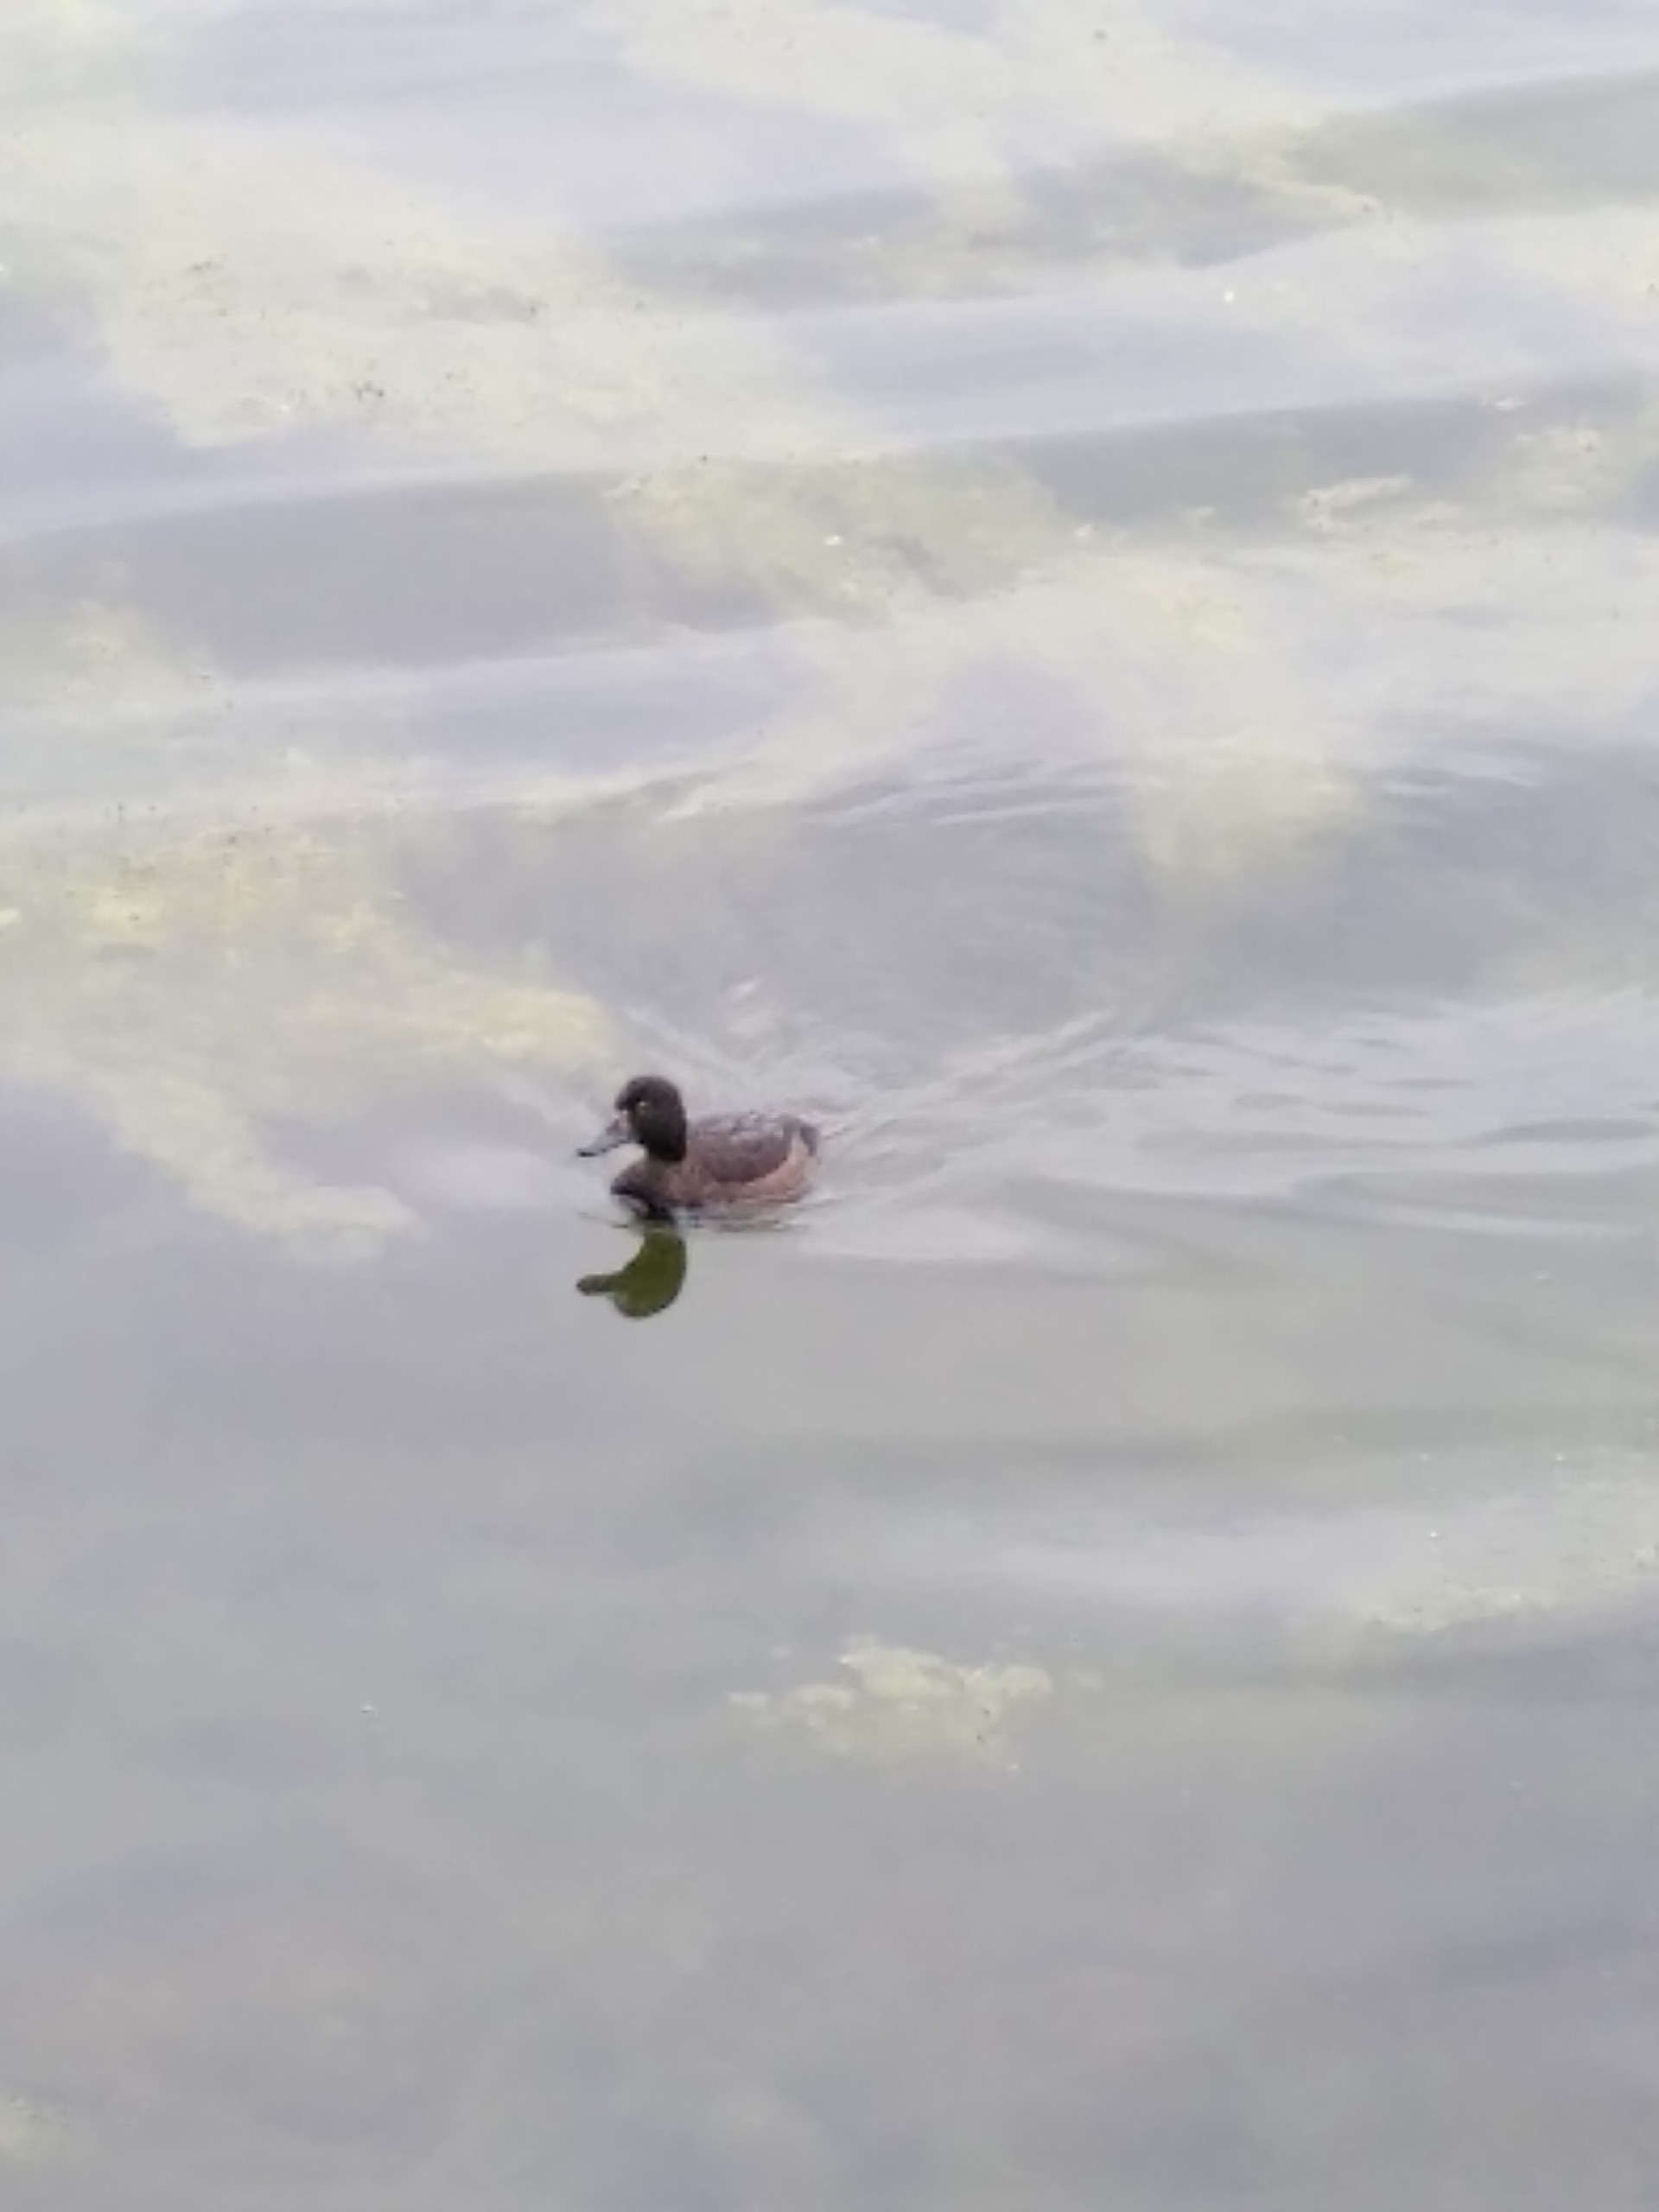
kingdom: Animalia
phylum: Chordata
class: Aves
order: Anseriformes
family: Anatidae
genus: Aythya
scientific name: Aythya fuligula
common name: Troldand
